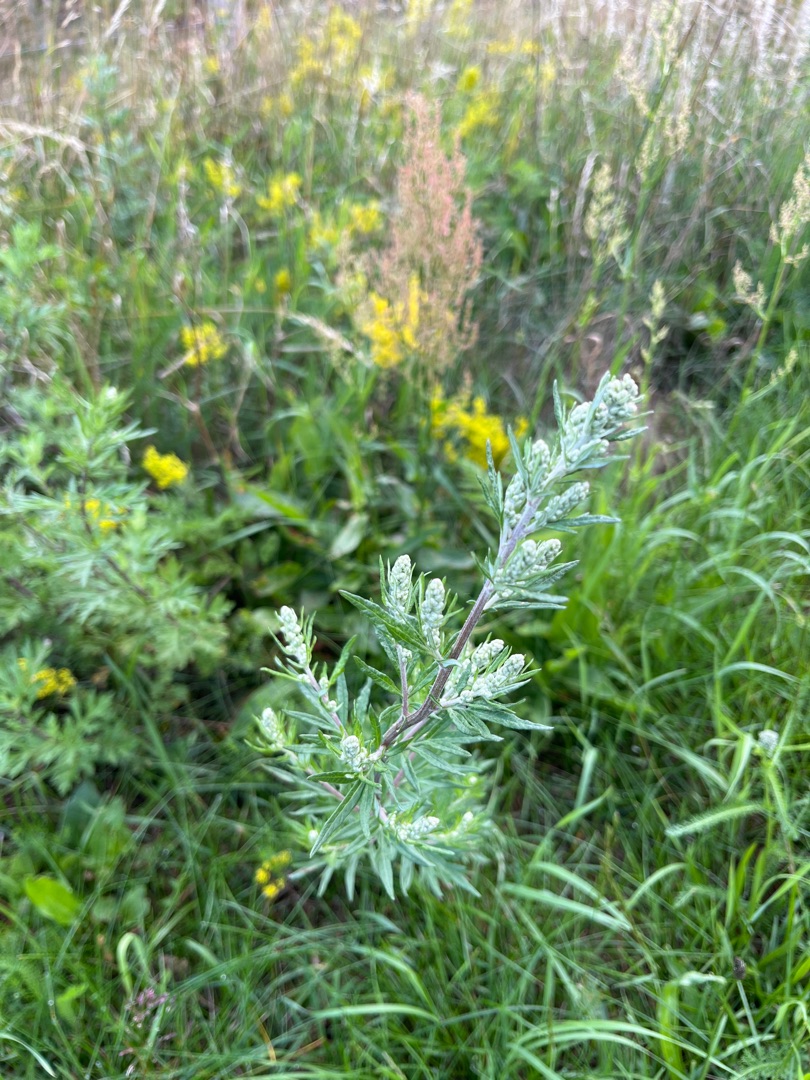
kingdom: Plantae
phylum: Tracheophyta
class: Magnoliopsida
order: Asterales
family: Asteraceae
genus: Artemisia
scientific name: Artemisia vulgaris
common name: Grå-bynke
